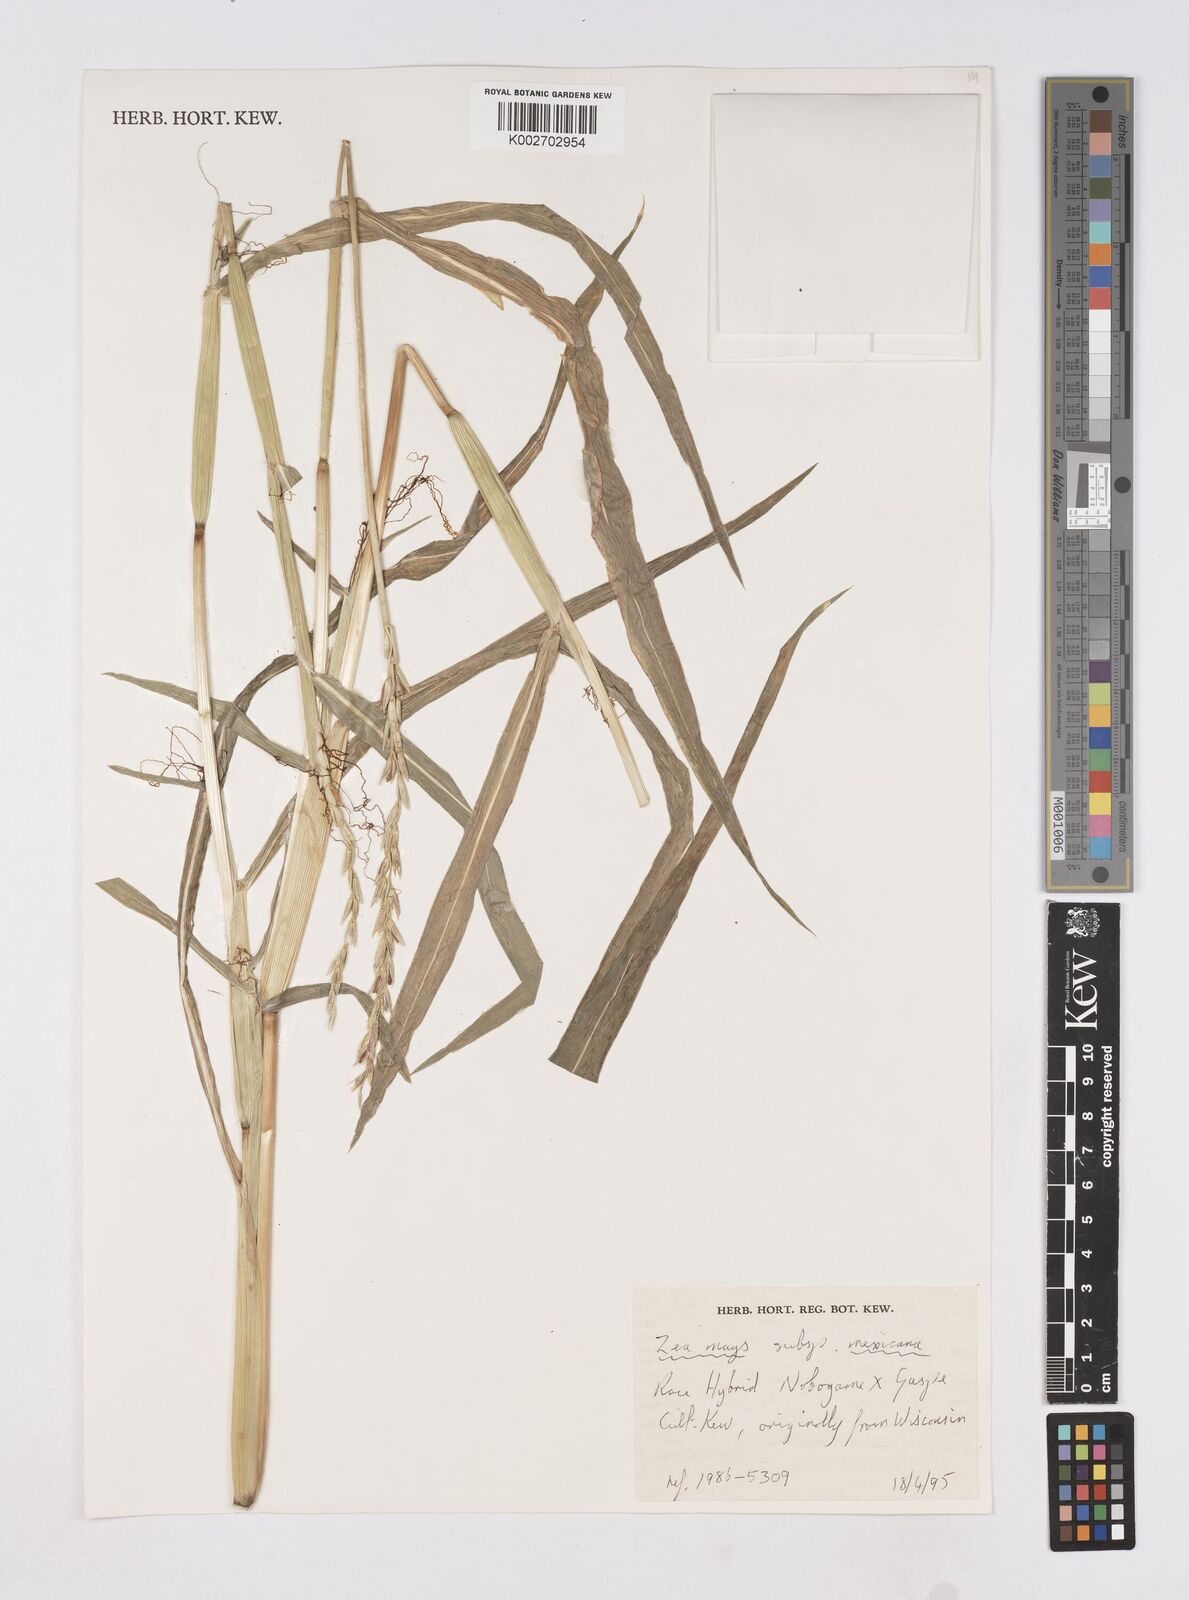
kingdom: Plantae
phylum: Tracheophyta
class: Liliopsida
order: Poales
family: Poaceae
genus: Zea
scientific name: Zea mexicana
